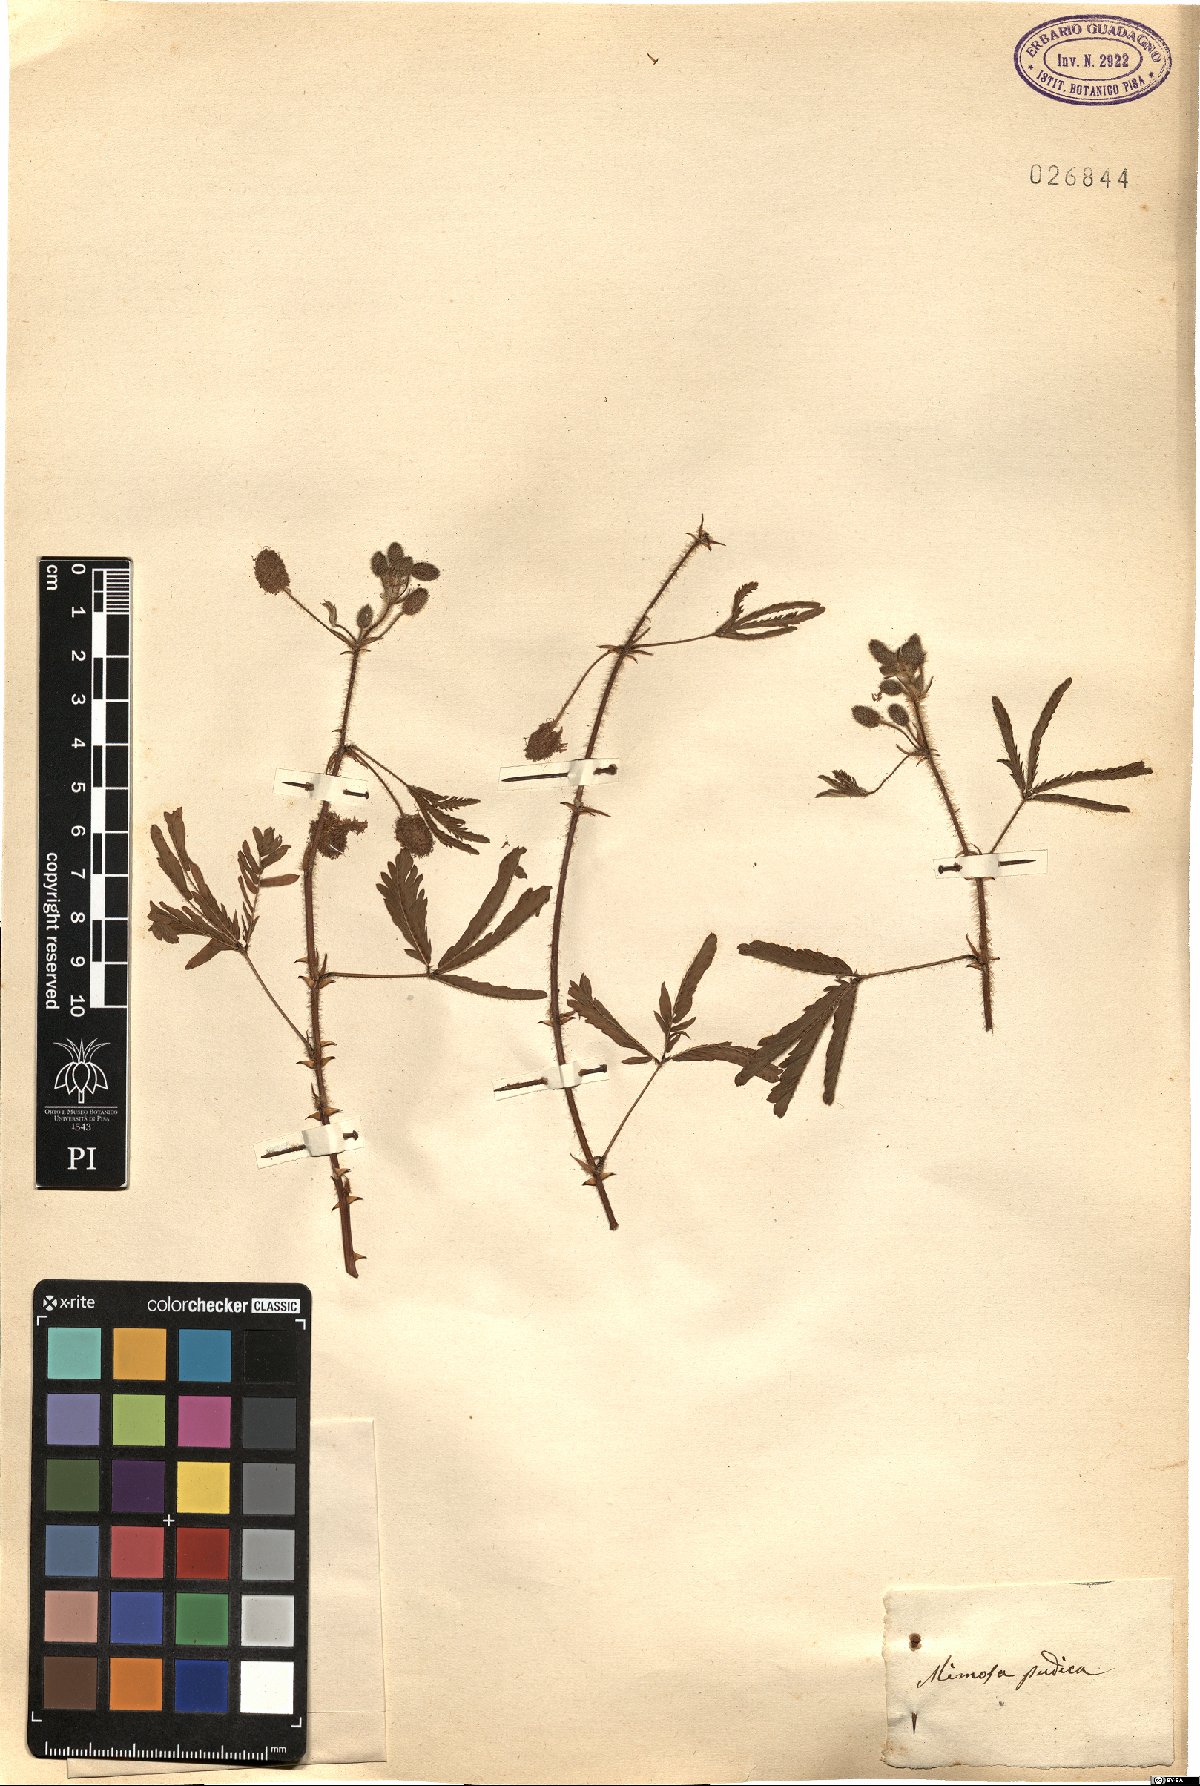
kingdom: Plantae
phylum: Tracheophyta
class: Magnoliopsida
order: Fabales
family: Fabaceae
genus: Mimosa
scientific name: Mimosa pudica
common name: Sensitive plant
